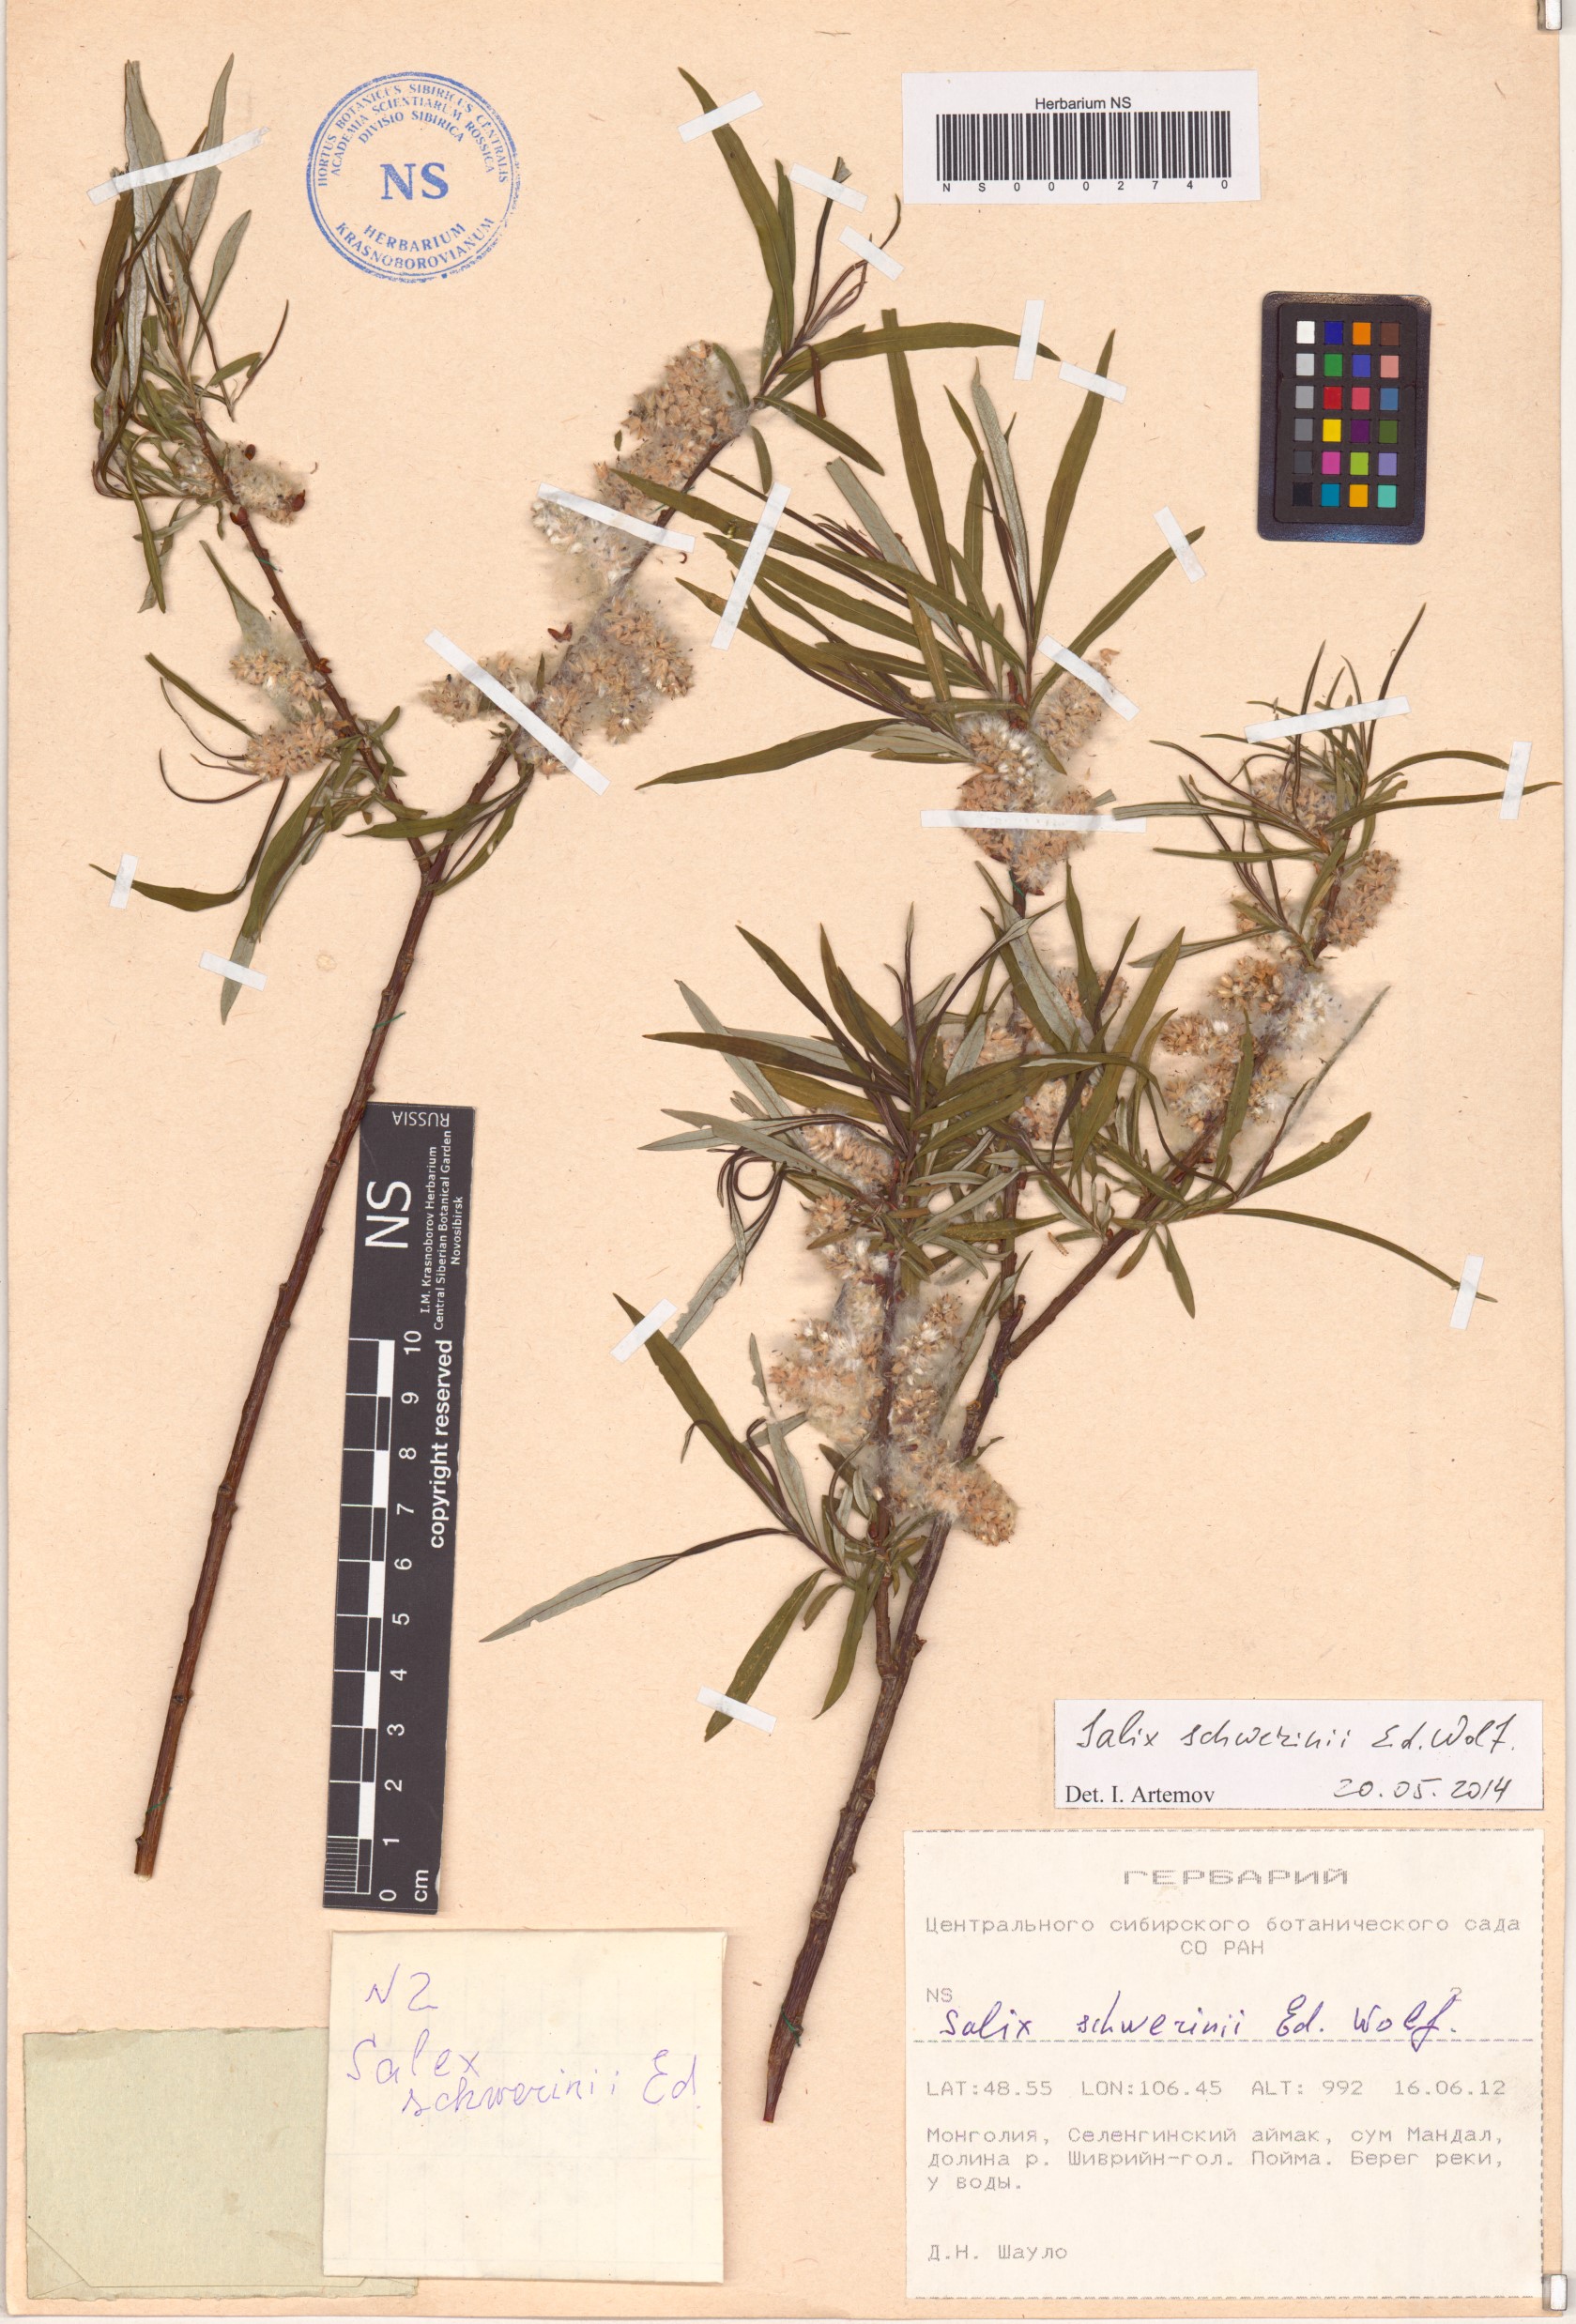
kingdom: Plantae
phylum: Tracheophyta
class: Magnoliopsida
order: Malpighiales
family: Salicaceae
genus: Salix
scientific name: Salix schwerinii
